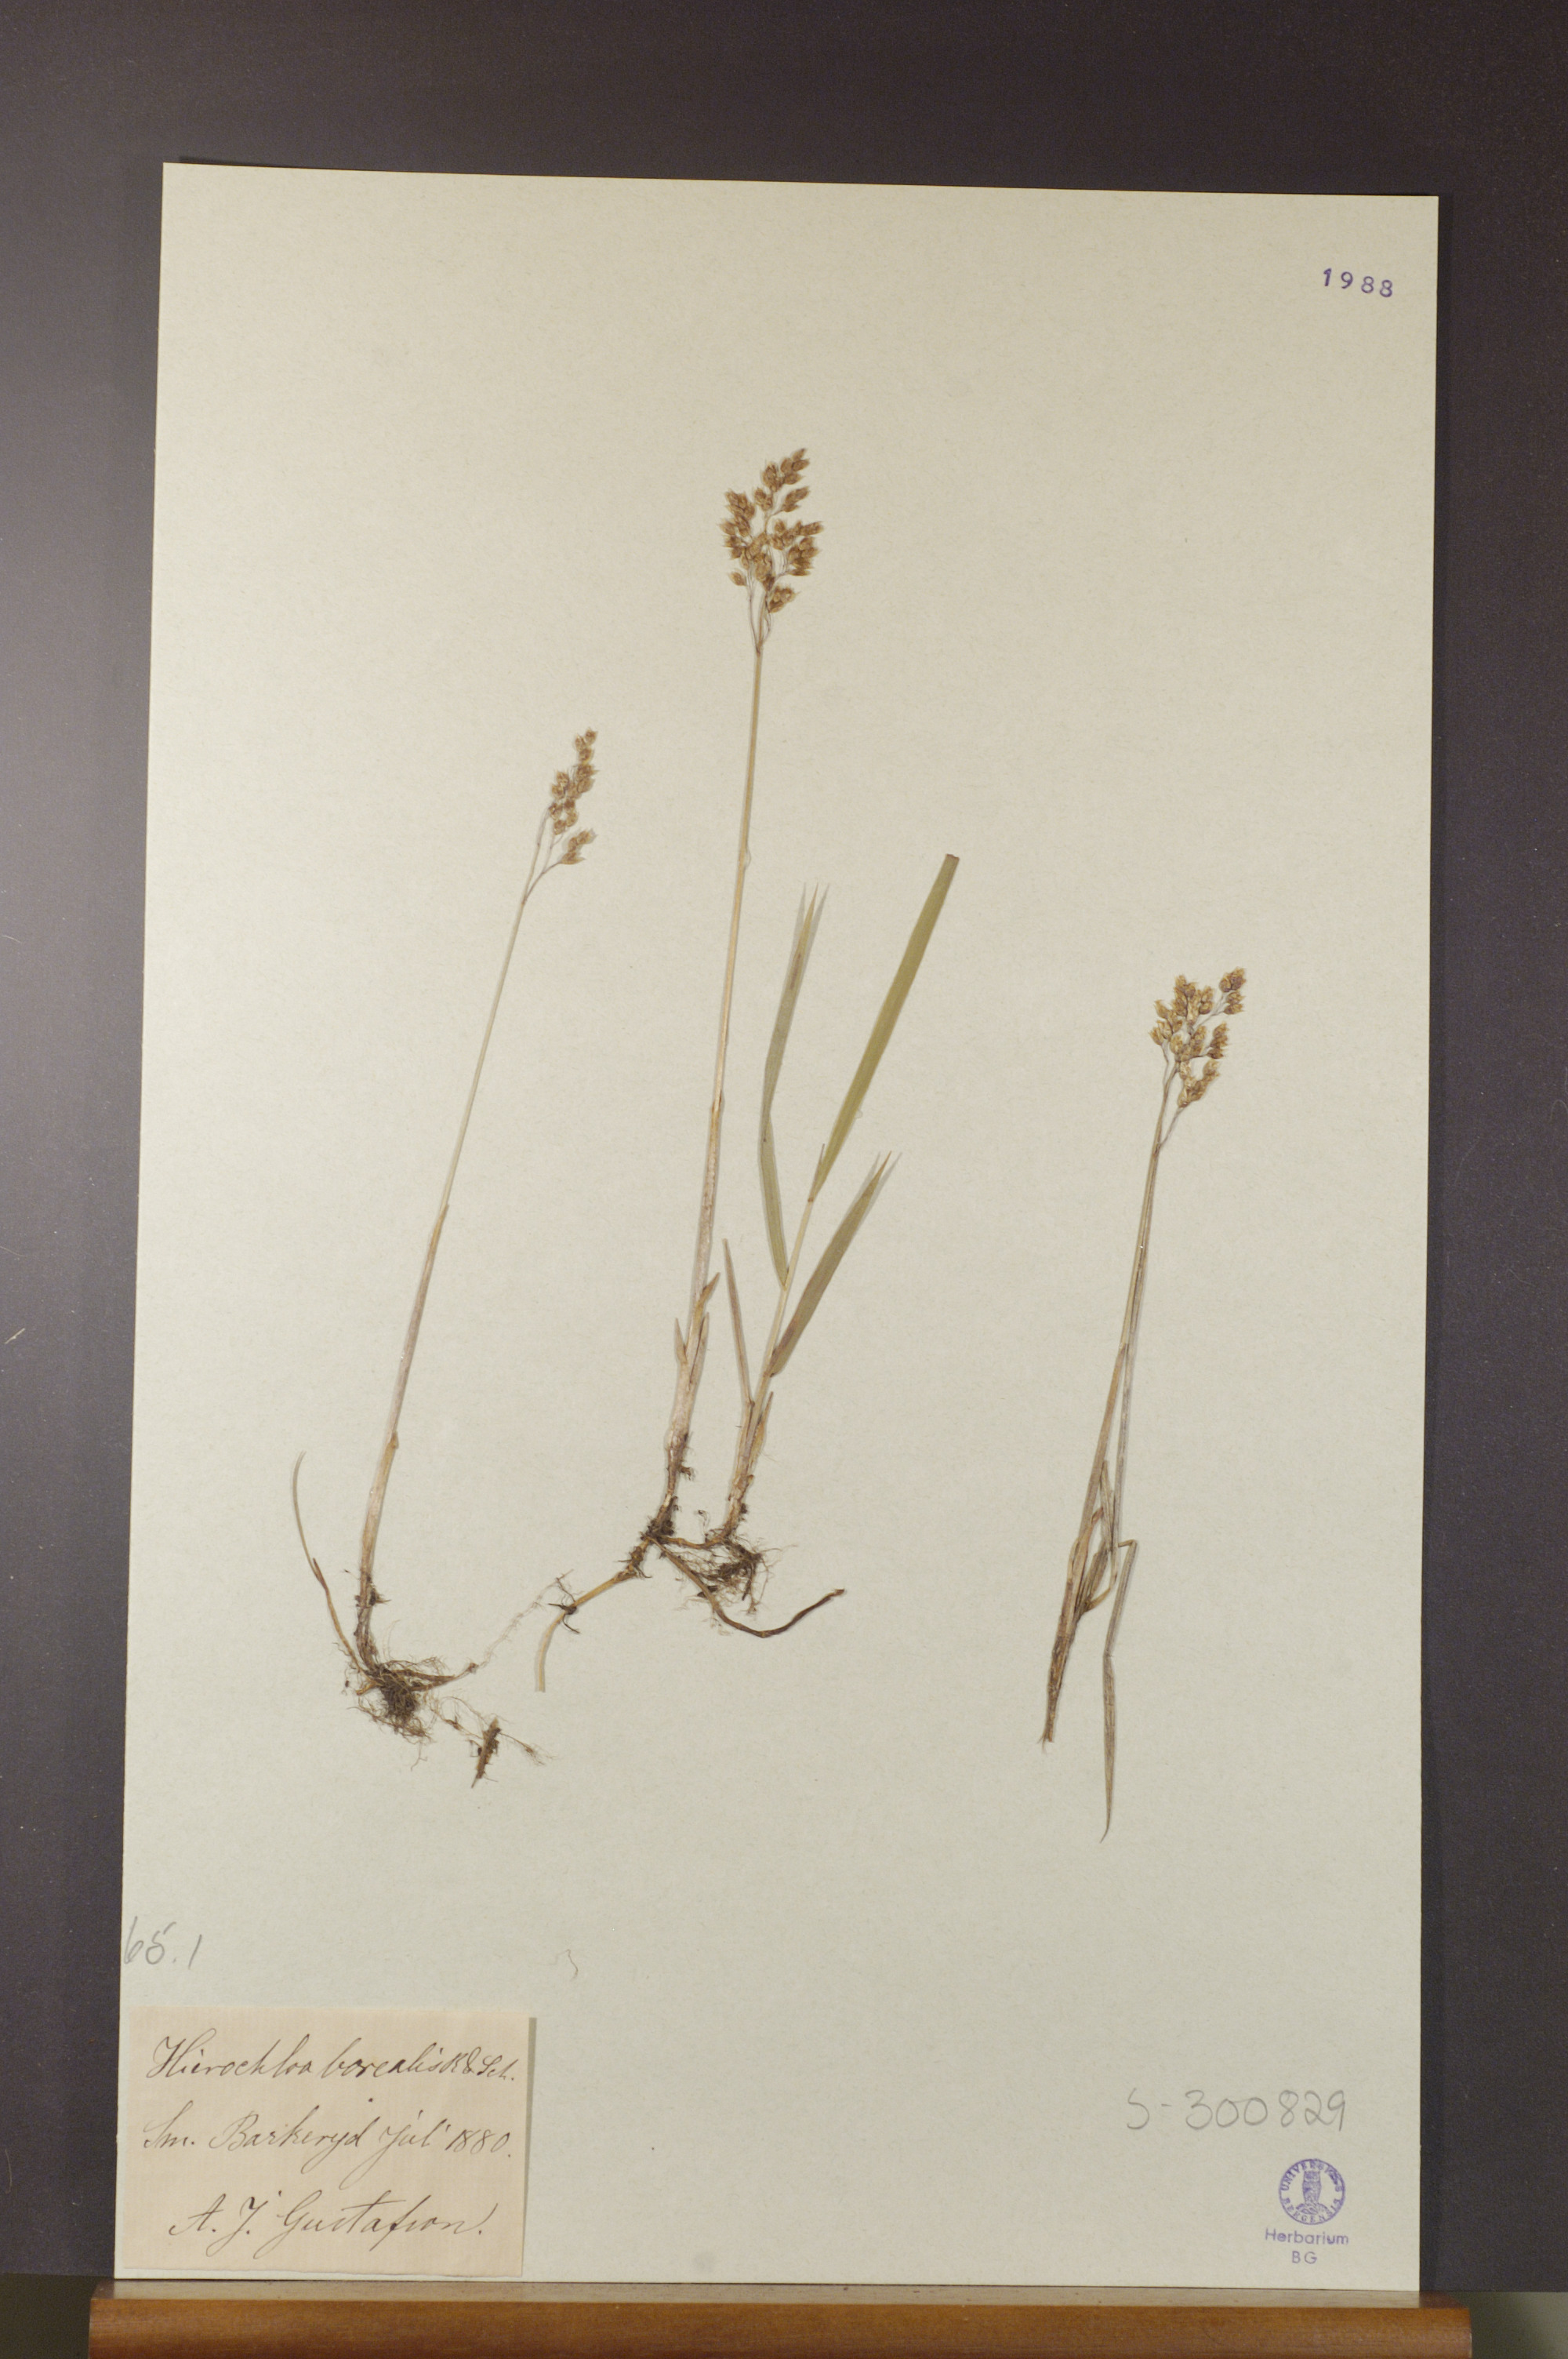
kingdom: Plantae
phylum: Tracheophyta
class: Liliopsida
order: Poales
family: Poaceae
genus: Anthoxanthum
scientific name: Anthoxanthum nitens
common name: Holy grass
